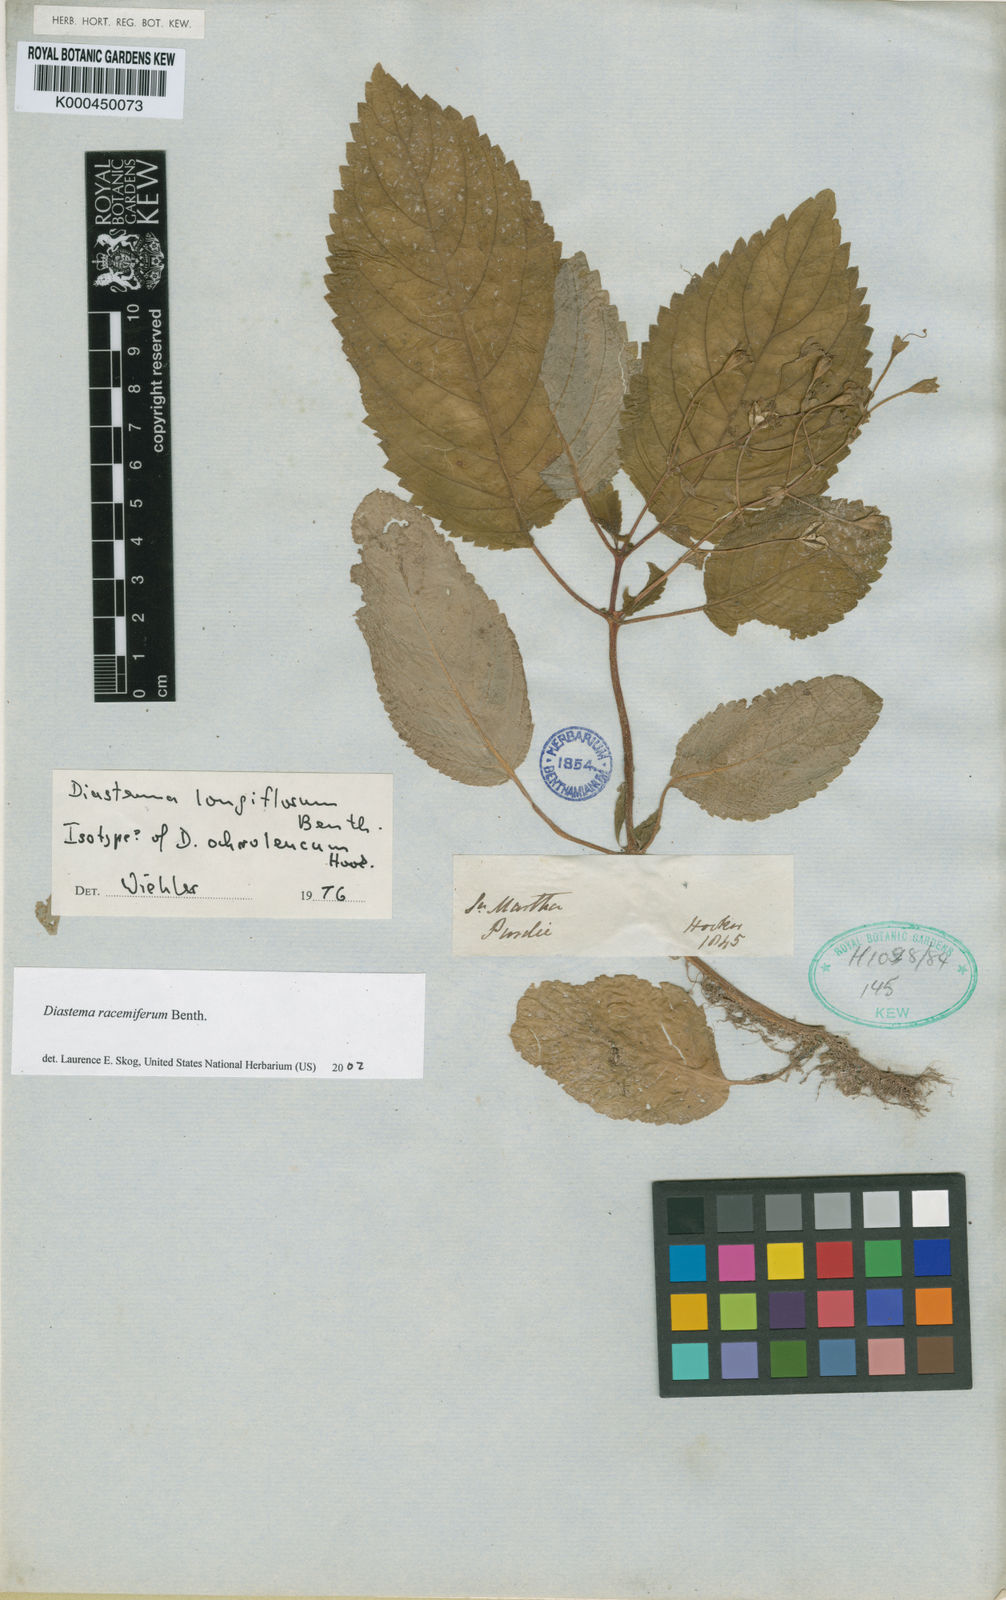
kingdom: Plantae
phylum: Tracheophyta
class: Magnoliopsida
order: Lamiales
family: Gesneriaceae
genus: Diastema
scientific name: Diastema racemiferum
